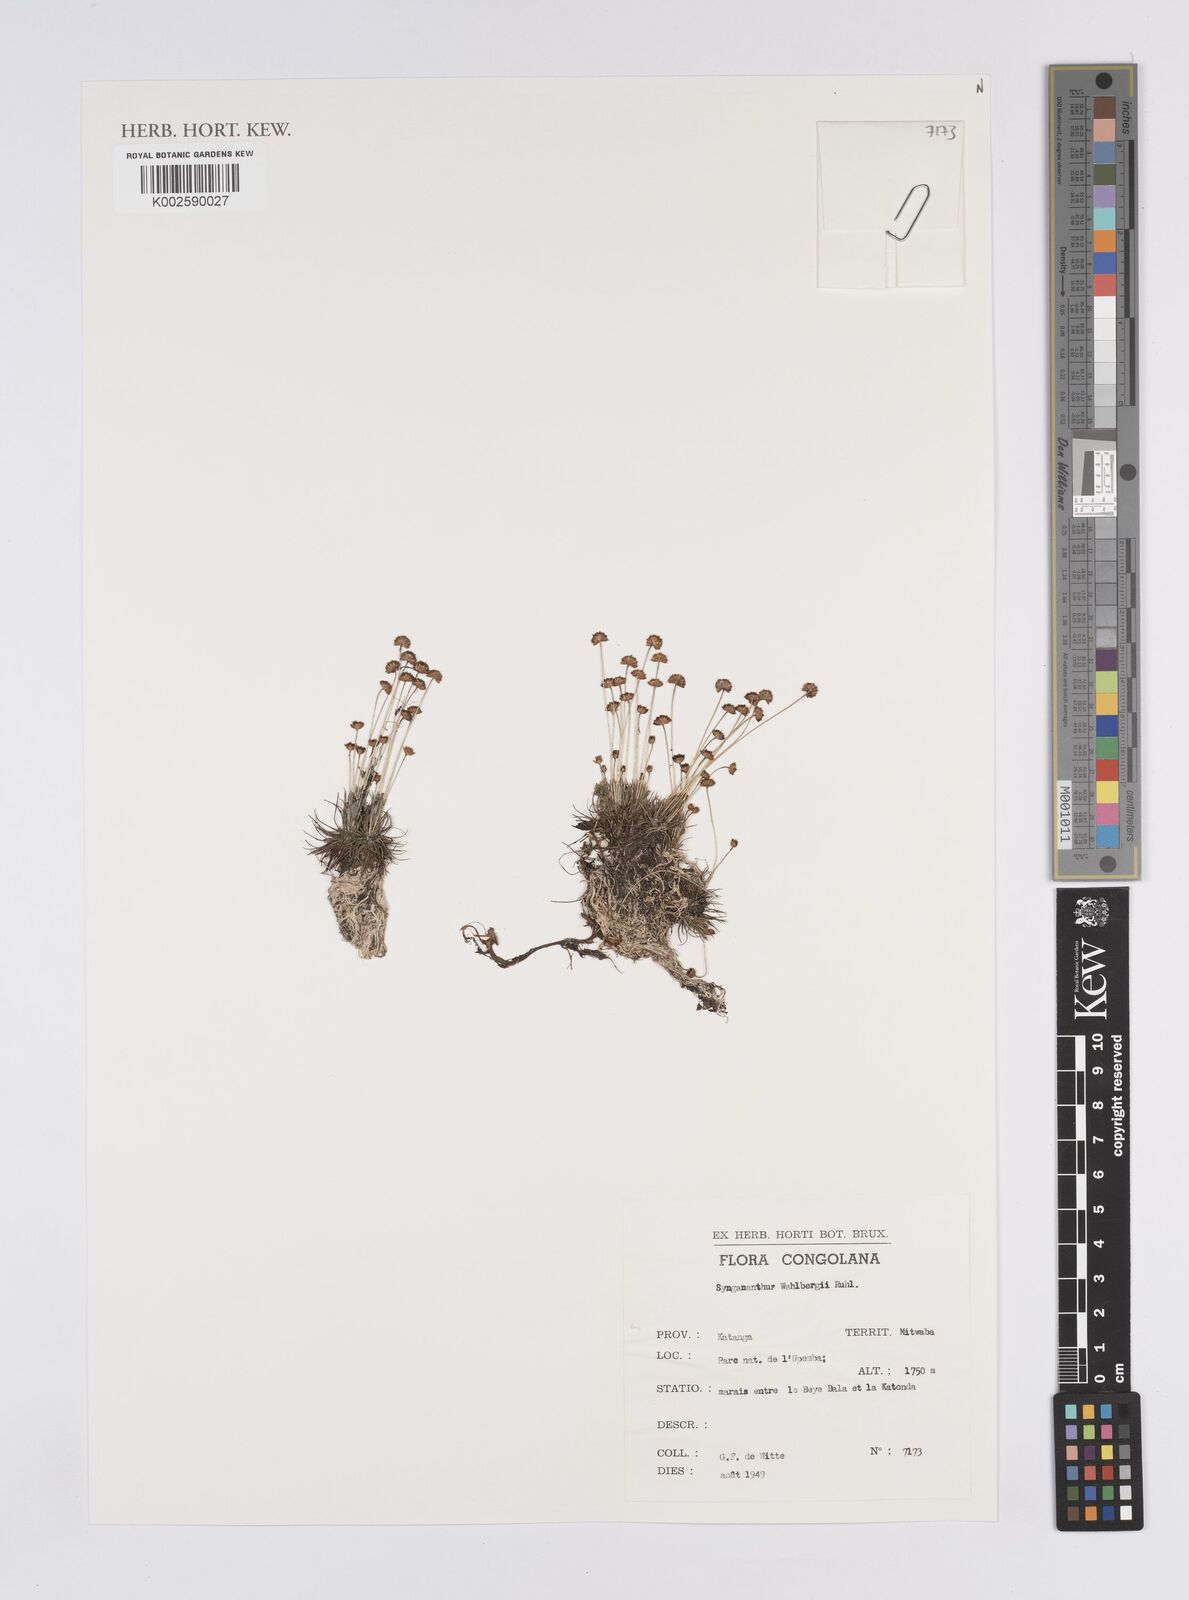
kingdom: Plantae
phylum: Tracheophyta
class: Liliopsida
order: Poales
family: Eriocaulaceae
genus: Syngonanthus
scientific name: Syngonanthus wahlbergii
